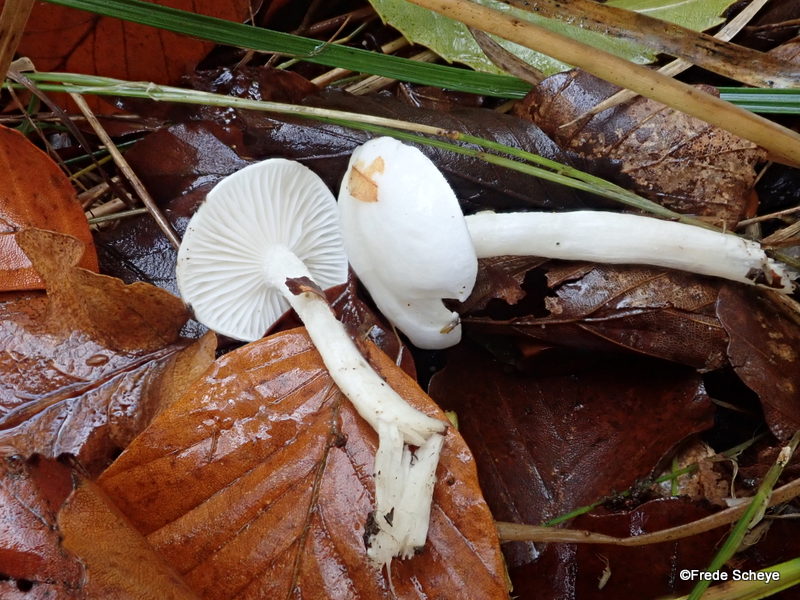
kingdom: Fungi
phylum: Basidiomycota
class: Agaricomycetes
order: Agaricales
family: Hygrophoraceae
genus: Hygrophorus
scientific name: Hygrophorus eburneus
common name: elfenbens-sneglehat
